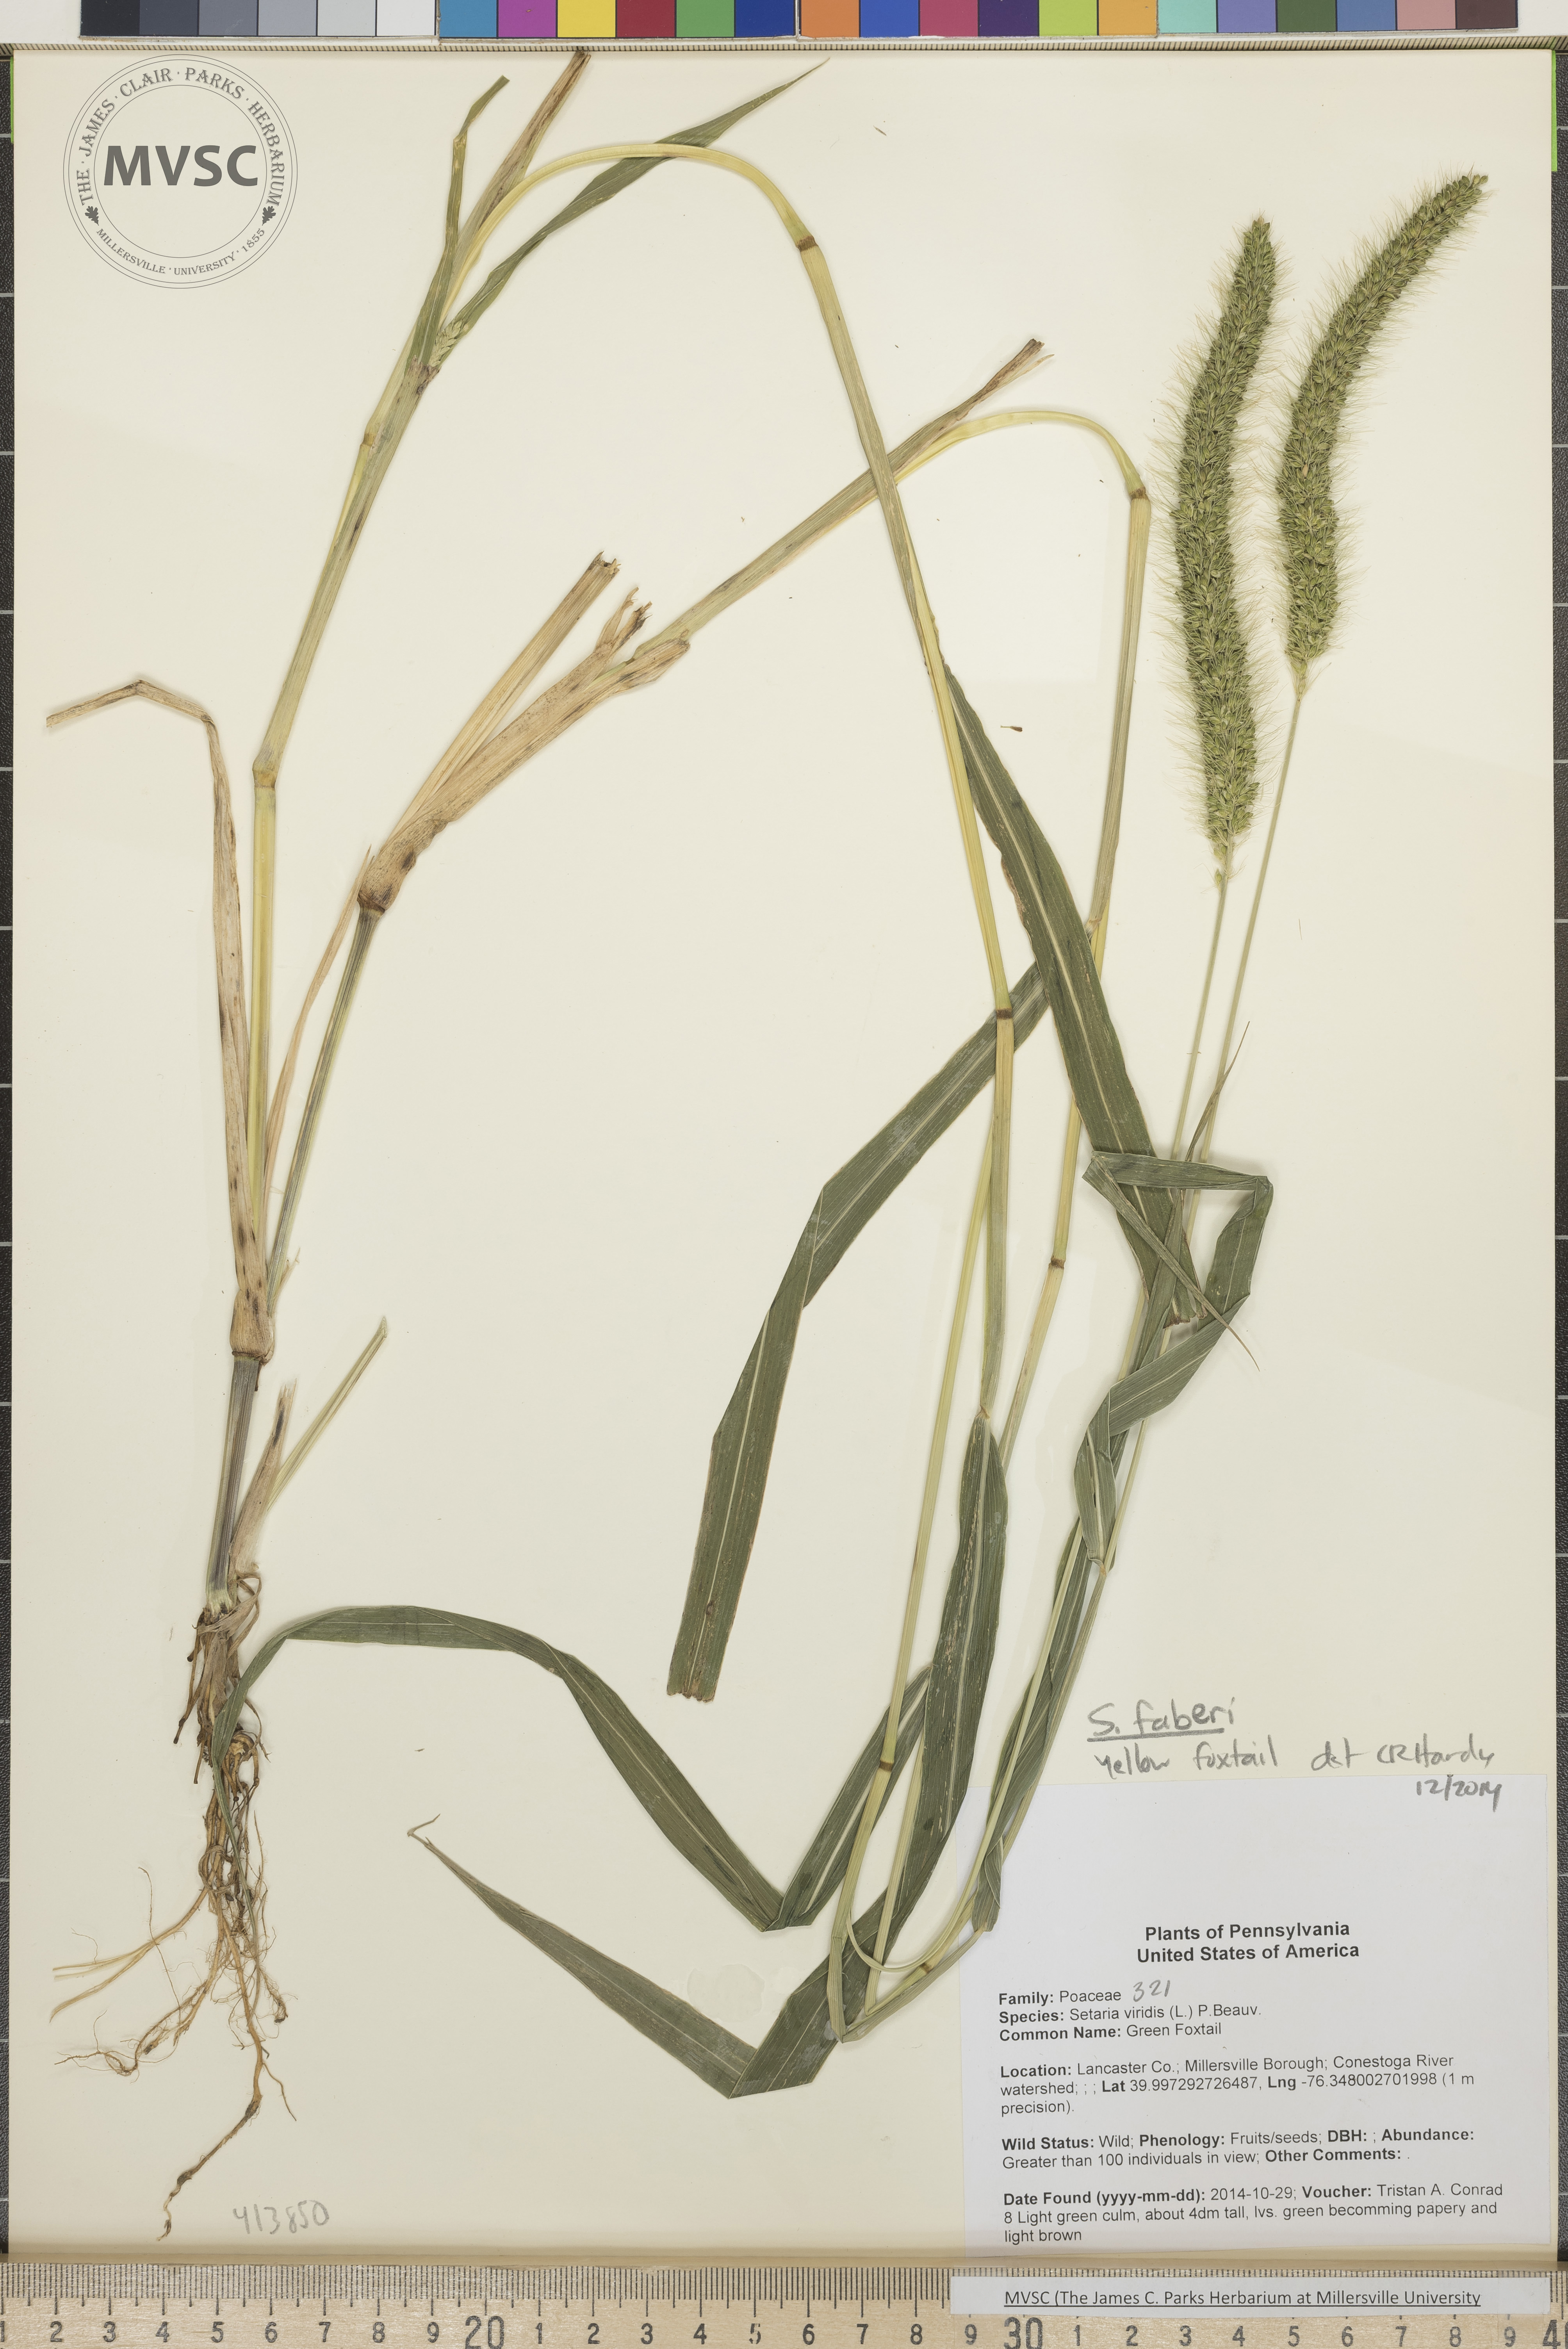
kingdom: Plantae
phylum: Tracheophyta
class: Liliopsida
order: Poales
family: Poaceae
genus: Setaria
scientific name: Setaria faberi
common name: Yellow Foxtail
